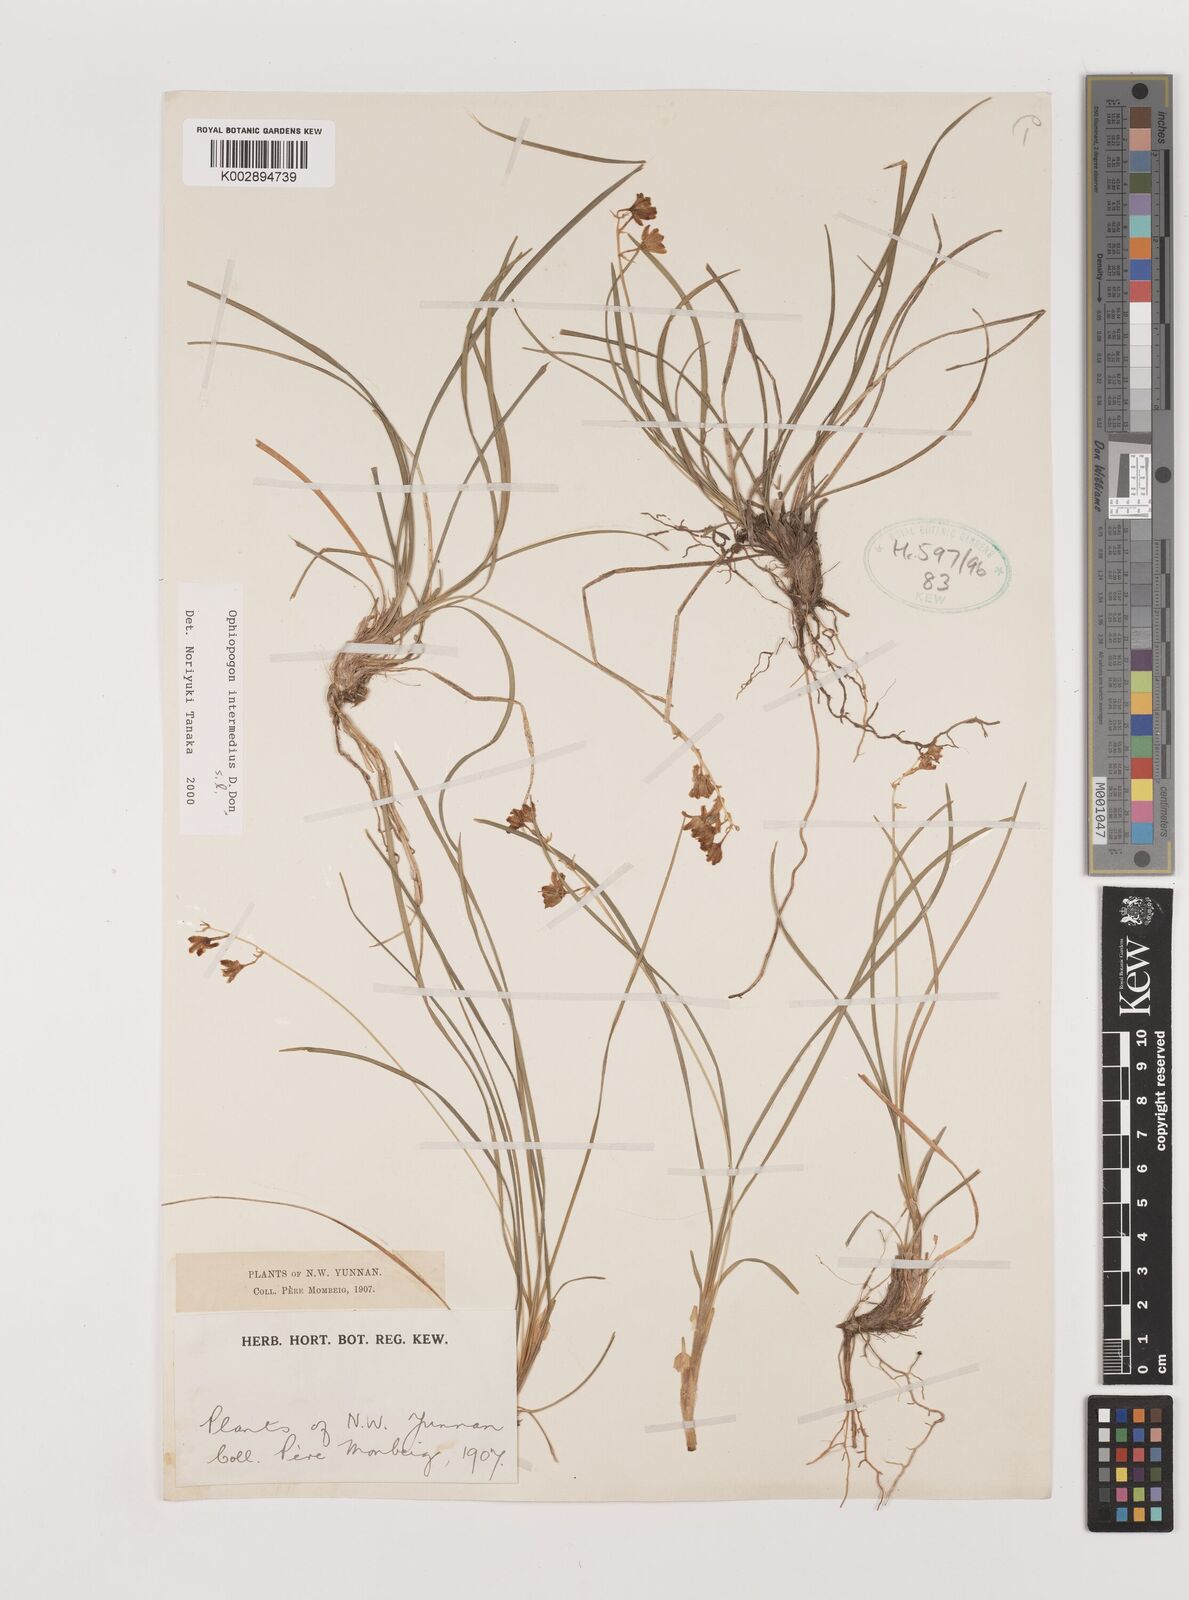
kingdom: Plantae
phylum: Tracheophyta
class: Liliopsida
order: Asparagales
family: Asparagaceae
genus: Ophiopogon
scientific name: Ophiopogon intermedius
